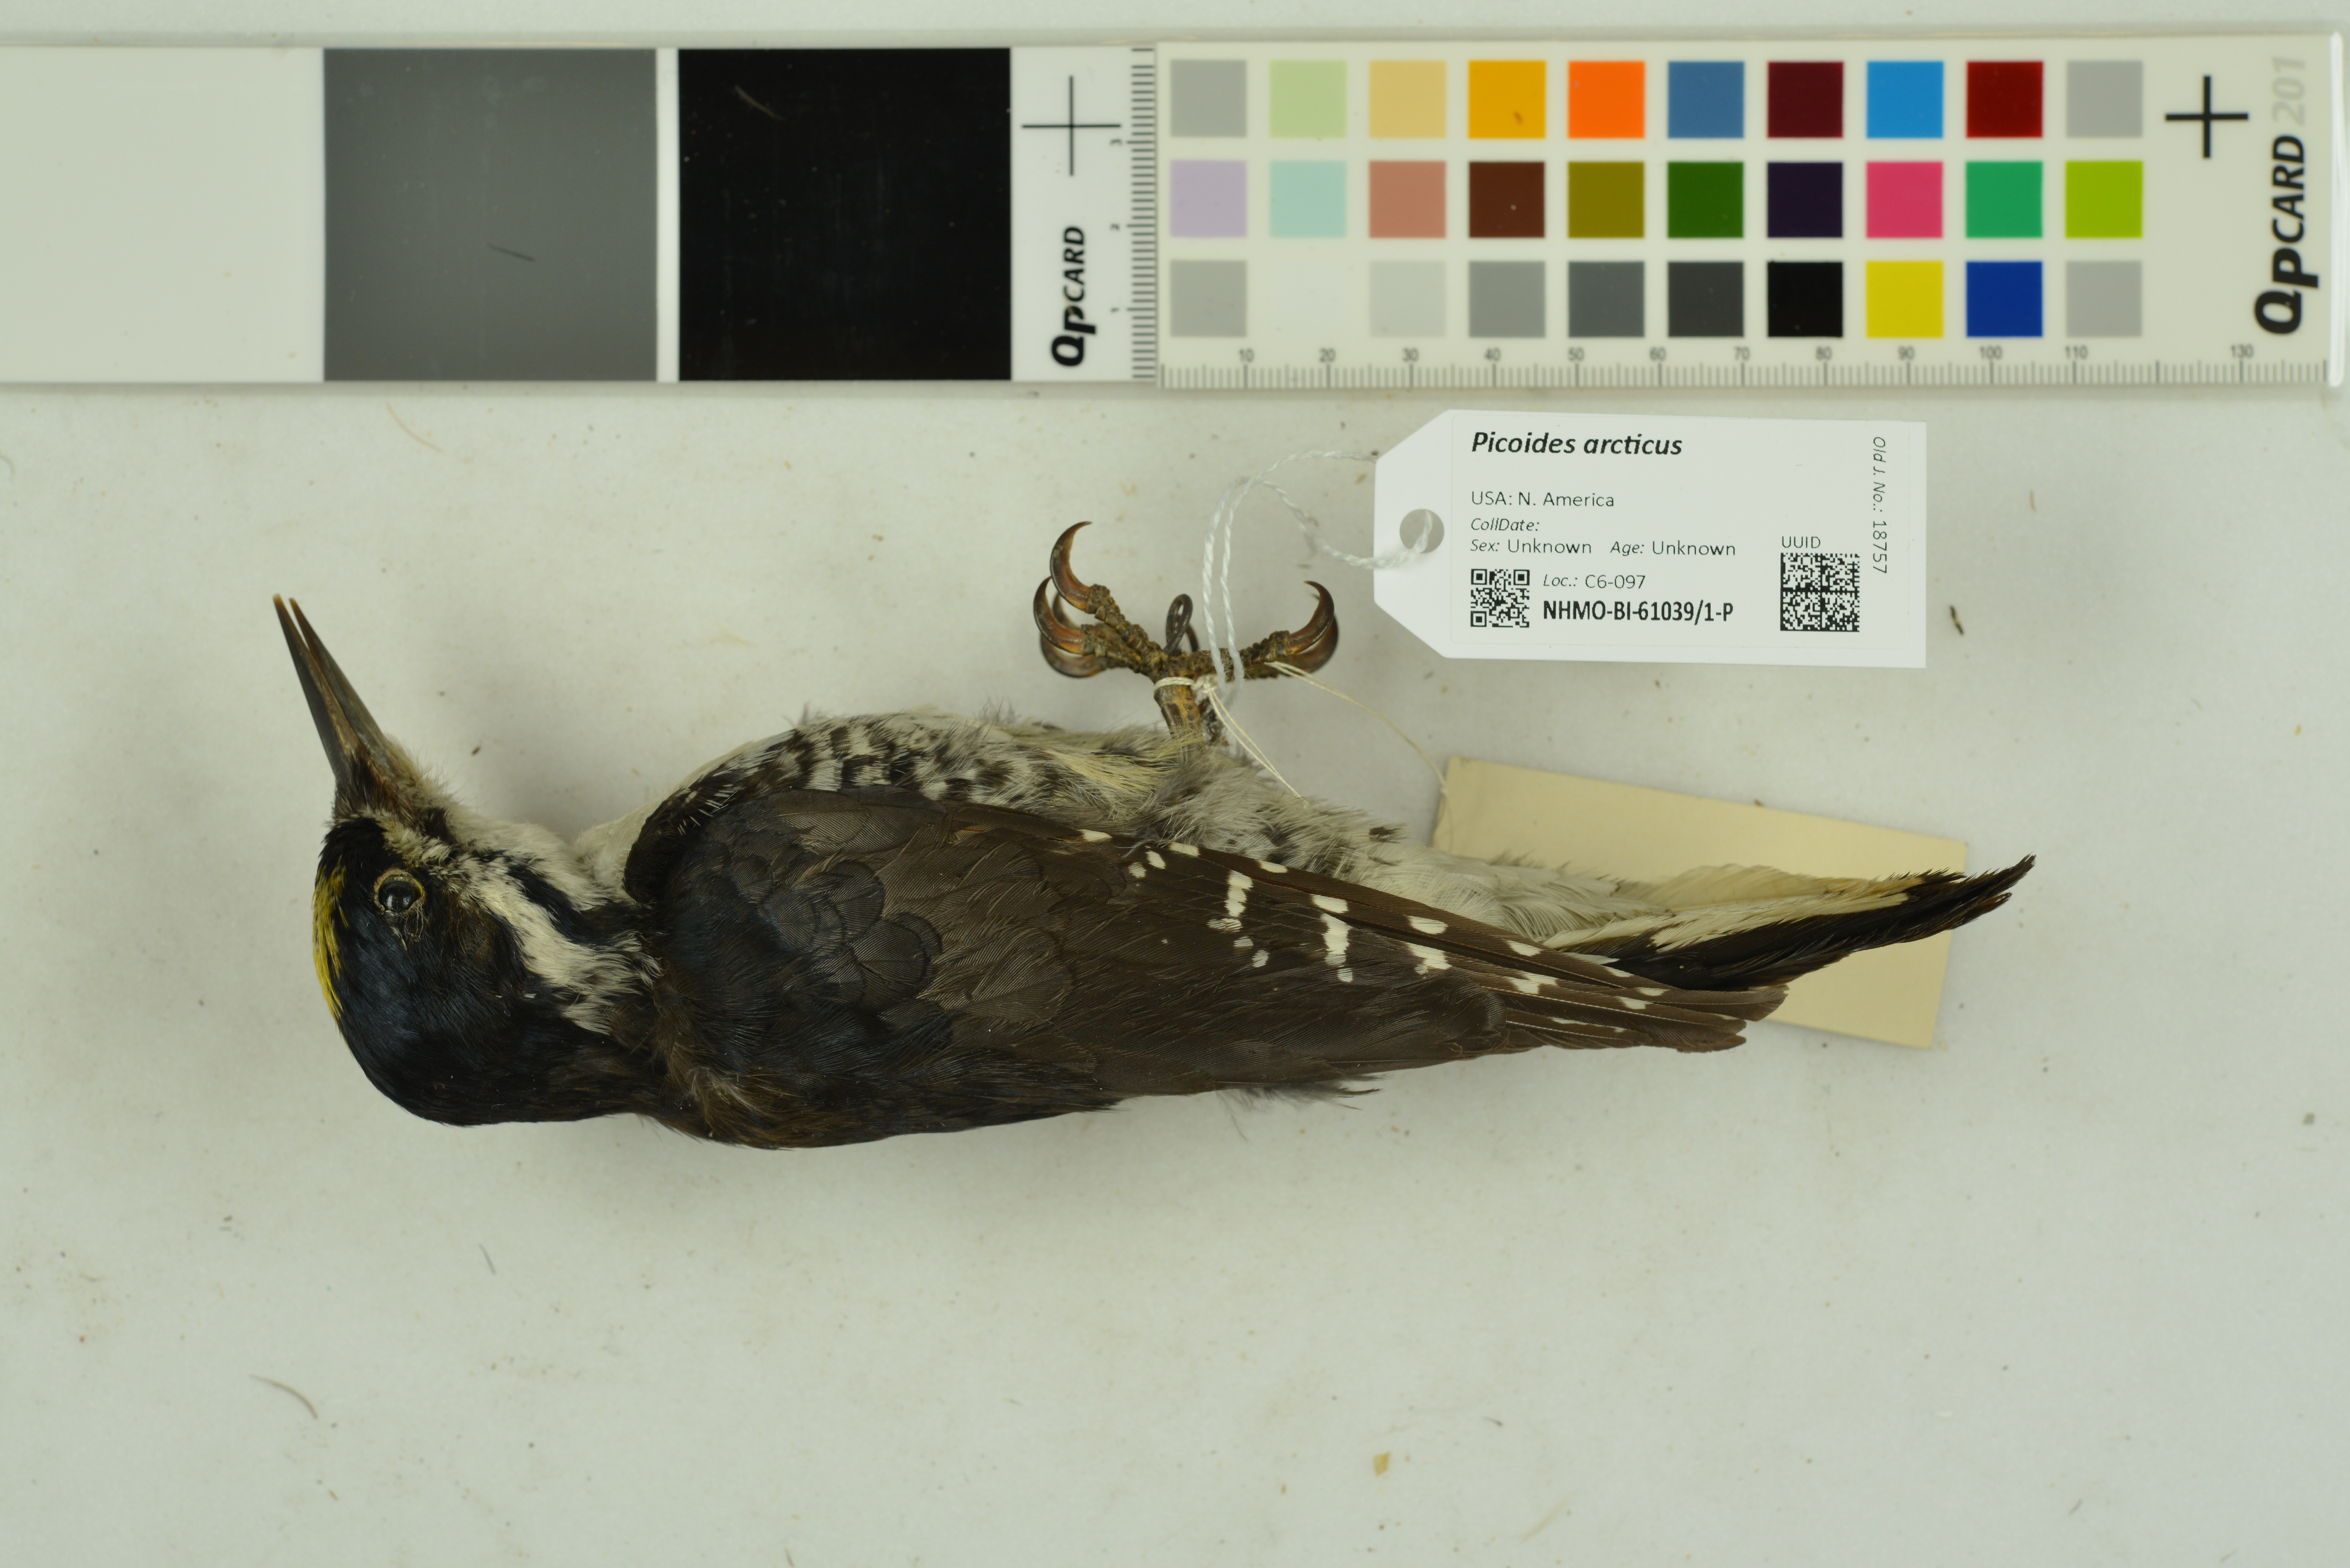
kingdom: Animalia
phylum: Chordata
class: Aves
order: Piciformes
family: Picidae
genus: Picoides
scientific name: Picoides arcticus
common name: Black-backed woodpecker
